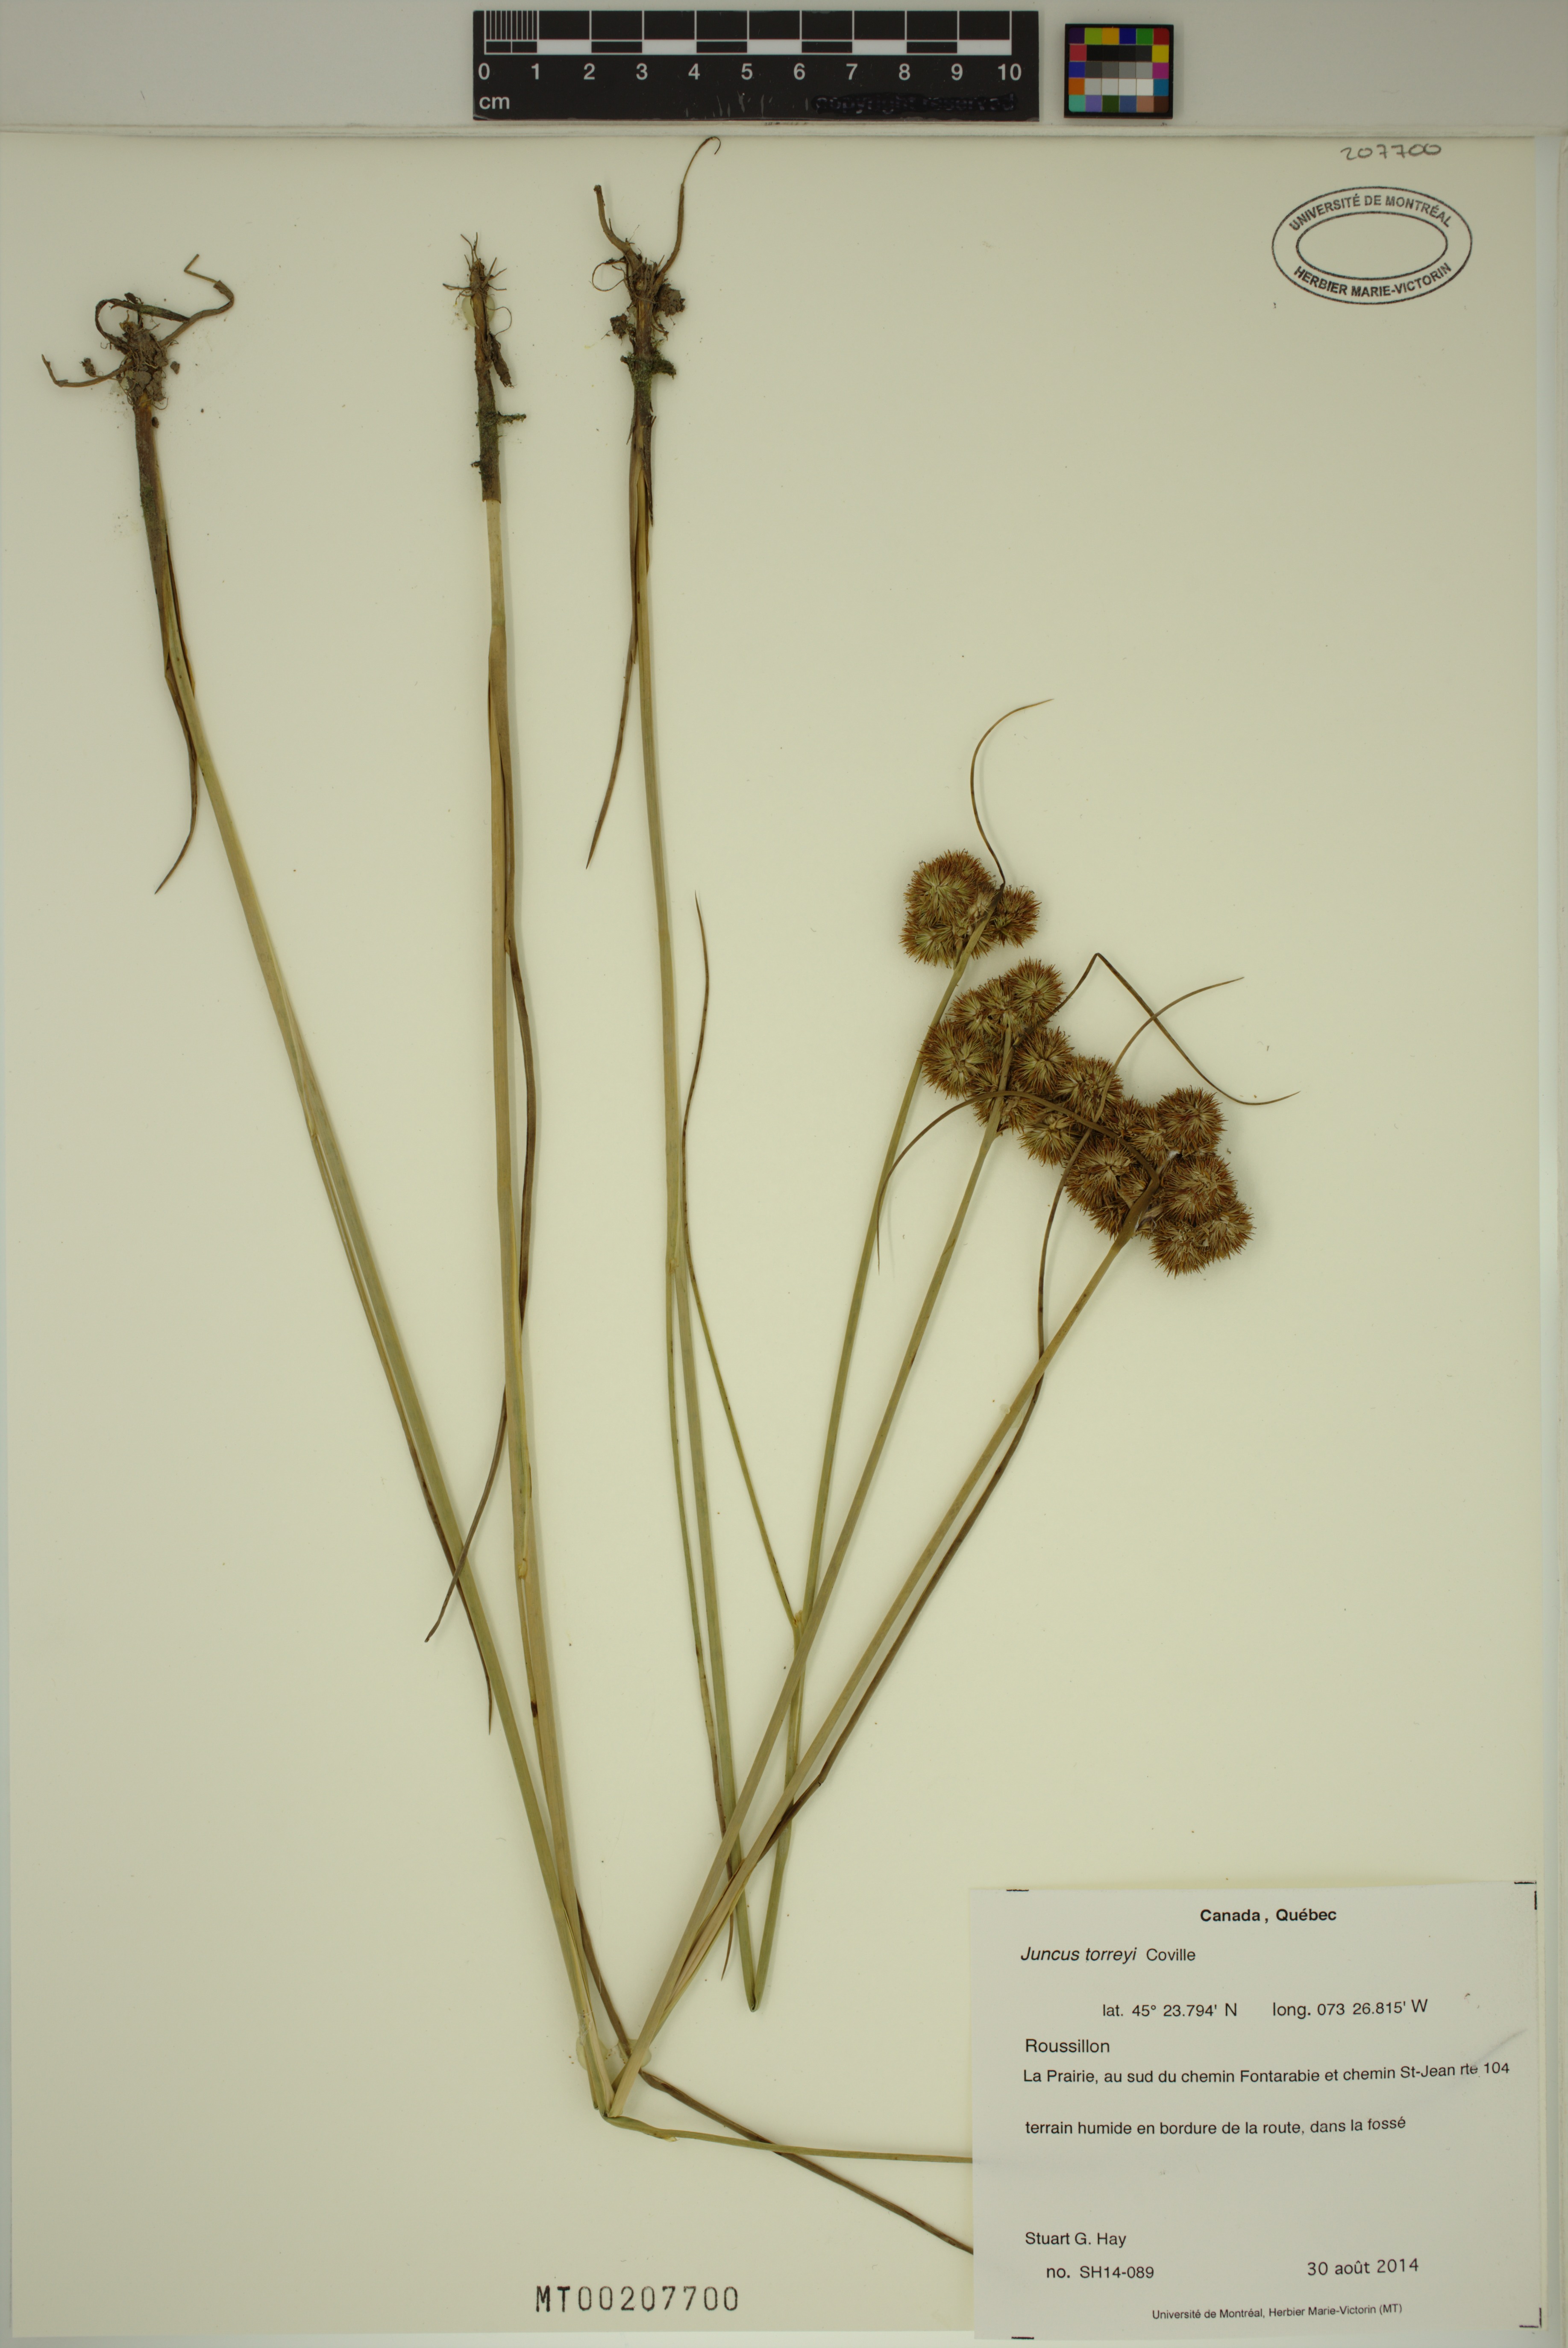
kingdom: Plantae
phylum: Tracheophyta
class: Liliopsida
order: Poales
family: Juncaceae
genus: Juncus
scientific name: Juncus torreyi
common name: Torrey's rush
